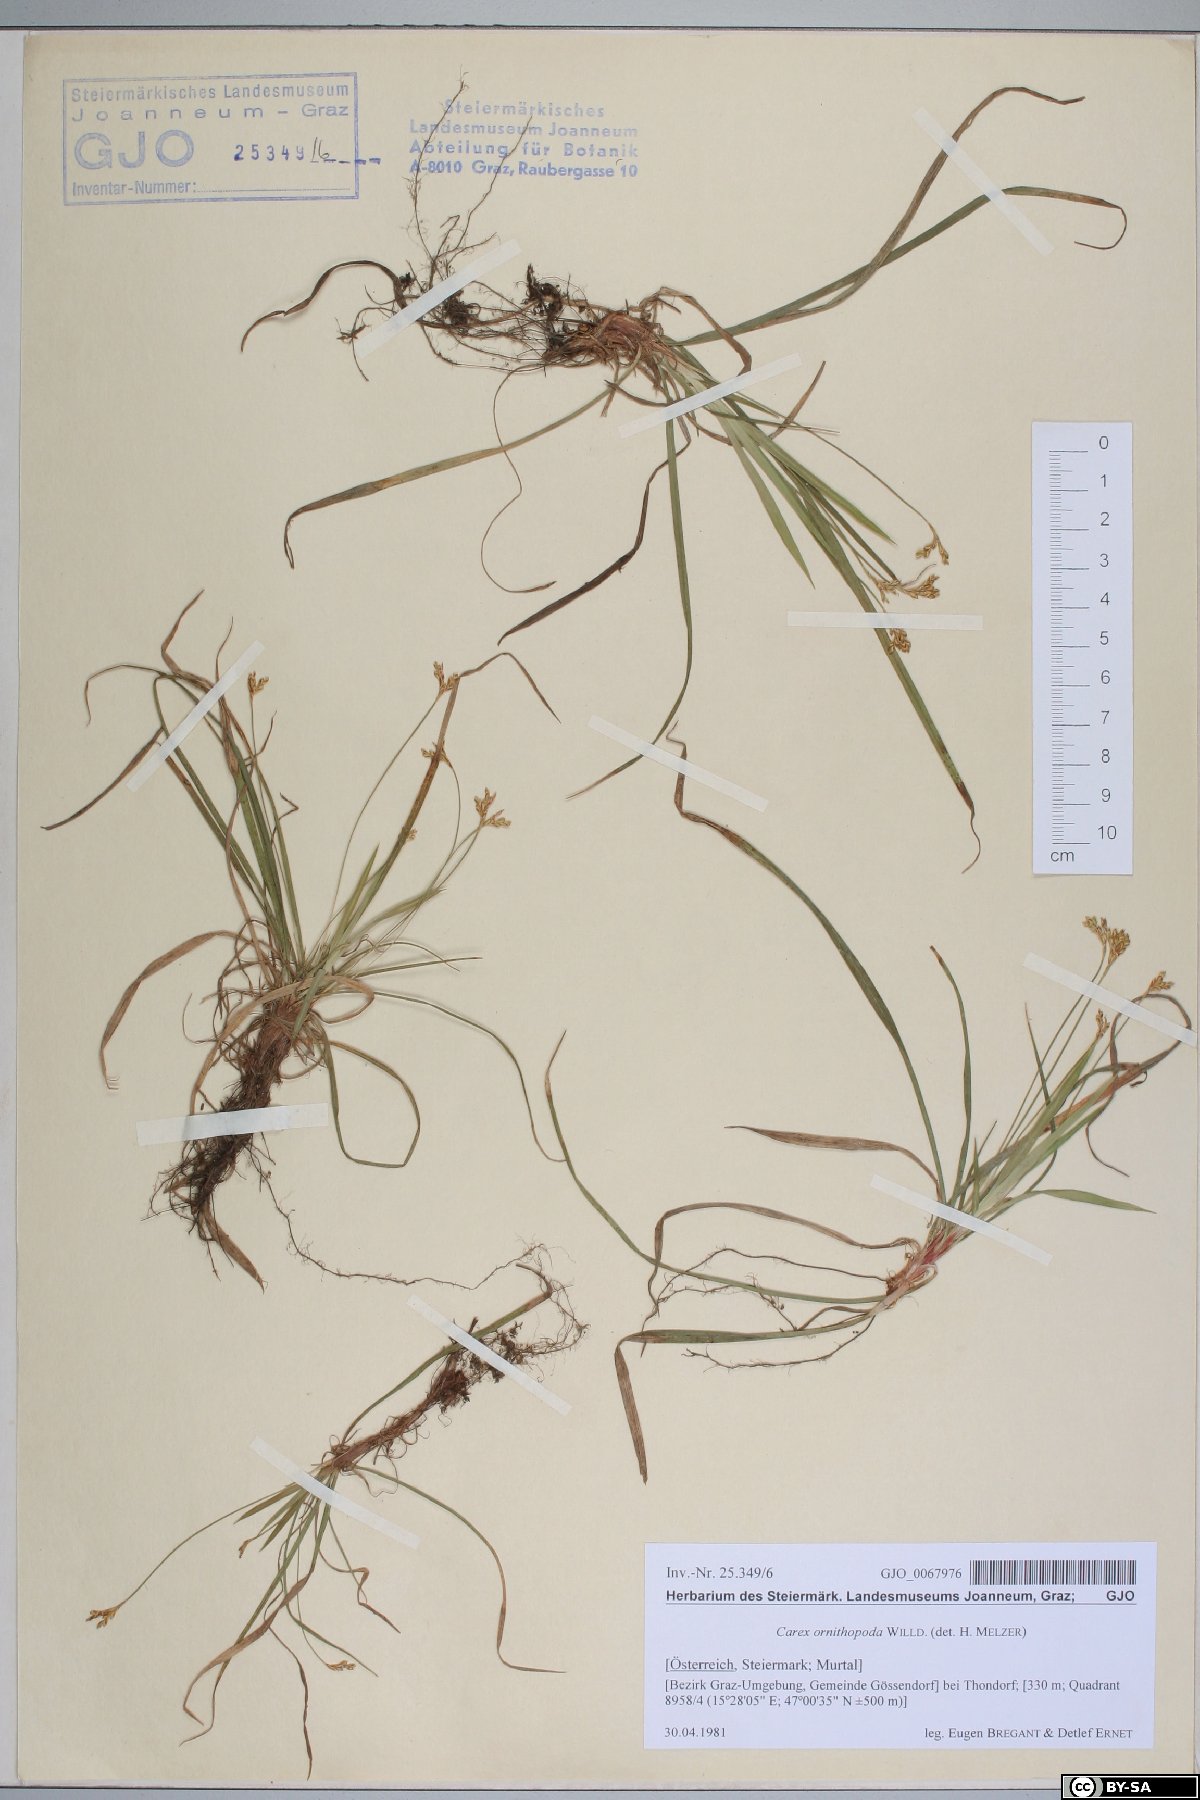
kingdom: Plantae
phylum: Tracheophyta
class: Liliopsida
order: Poales
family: Cyperaceae
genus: Carex
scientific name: Carex ornithopoda
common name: Bird's-foot sedge
